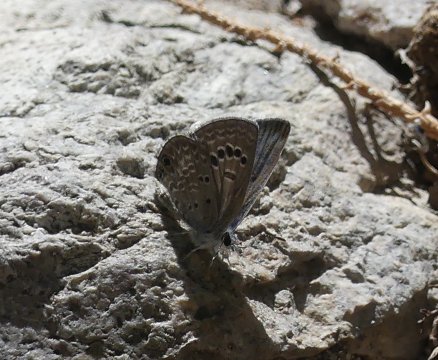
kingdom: Animalia
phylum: Arthropoda
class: Insecta
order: Lepidoptera
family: Lycaenidae
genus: Echinargus
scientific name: Echinargus isola
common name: Reakirt's Blue
